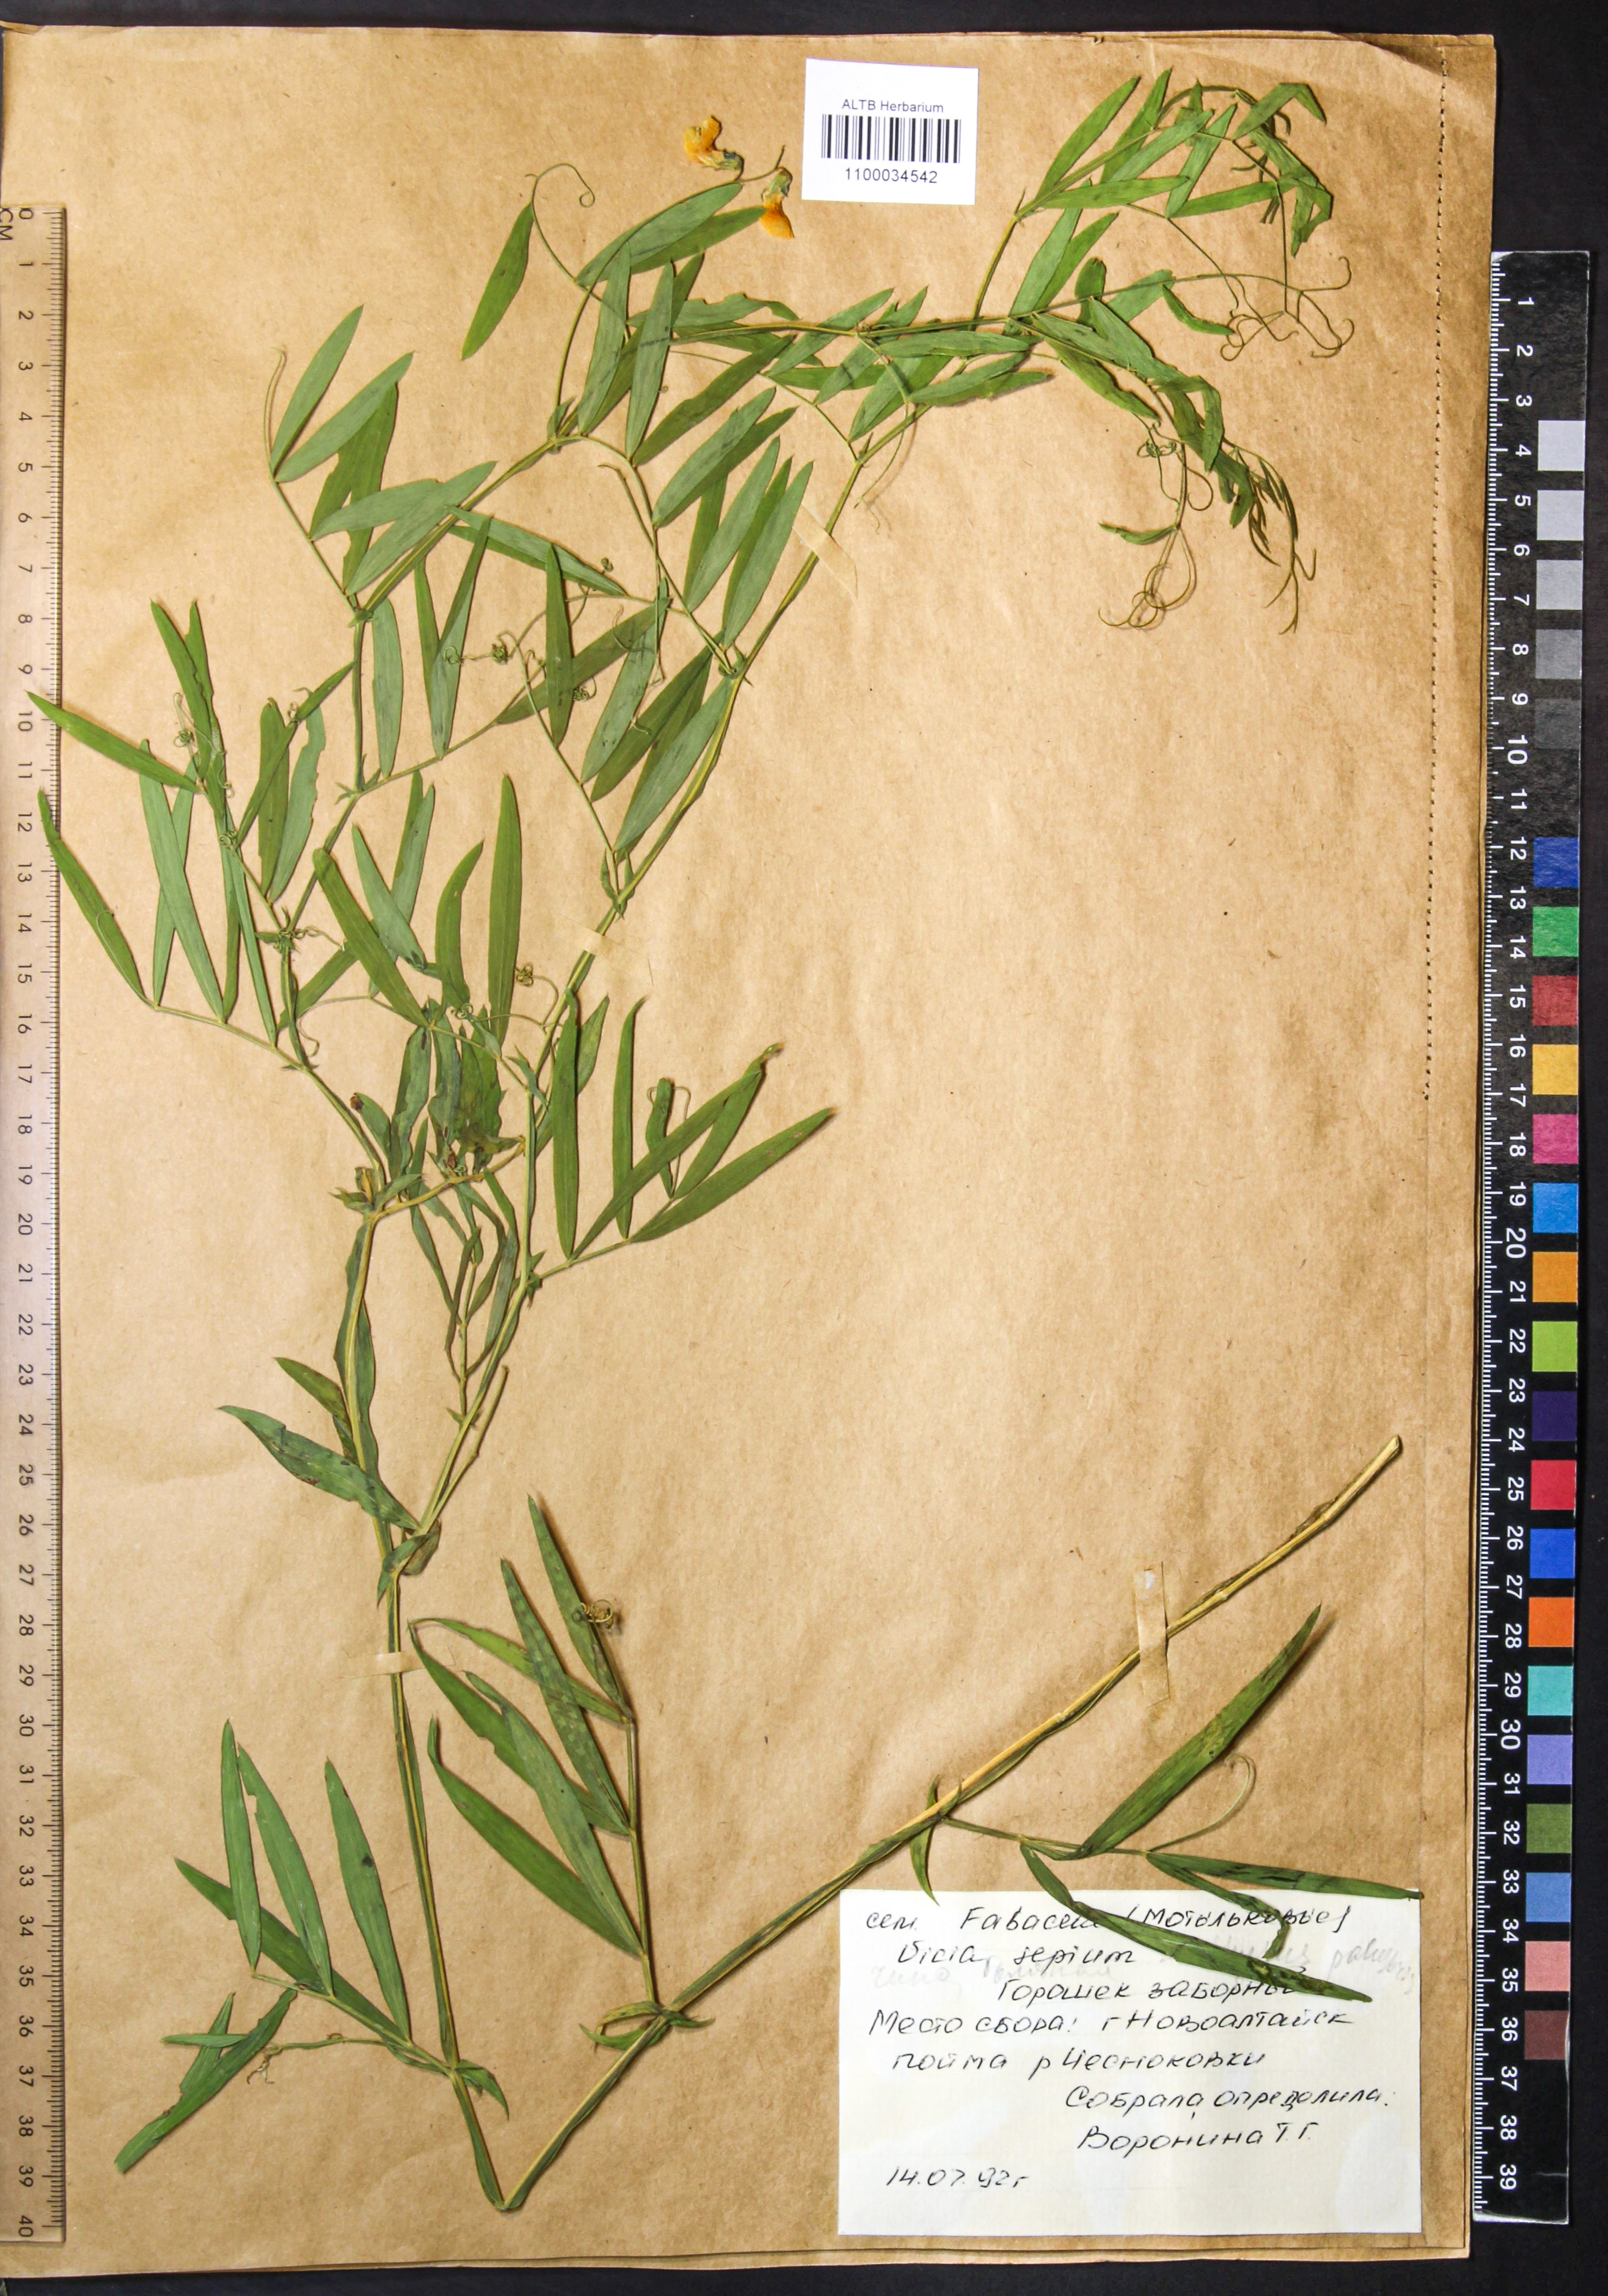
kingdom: Plantae
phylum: Tracheophyta
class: Magnoliopsida
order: Fabales
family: Fabaceae
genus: Lathyrus
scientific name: Lathyrus palustris
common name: Marsh pea
